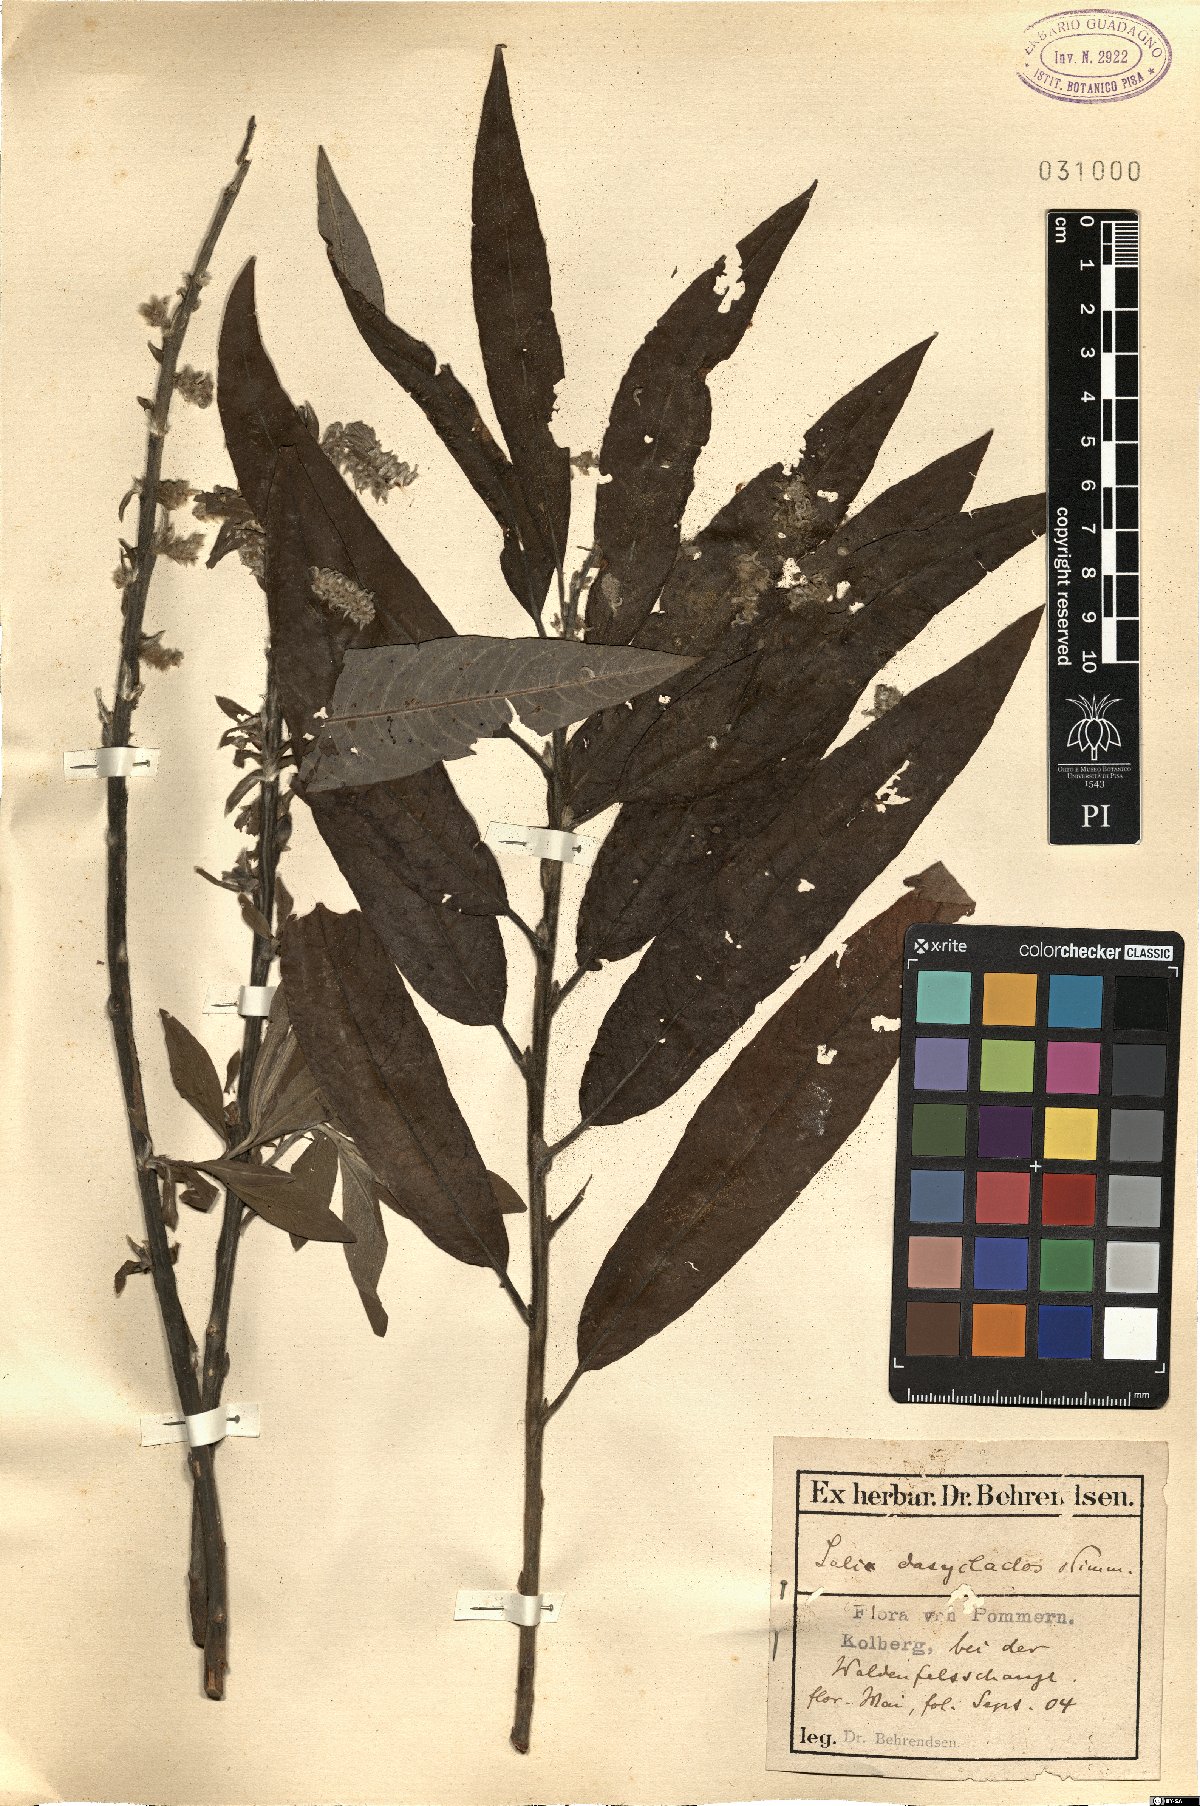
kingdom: Plantae
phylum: Tracheophyta
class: Magnoliopsida
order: Malpighiales
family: Salicaceae
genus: Salix
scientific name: Salix gmelinii
